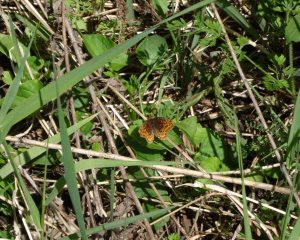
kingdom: Animalia
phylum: Arthropoda
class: Insecta
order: Lepidoptera
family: Nymphalidae
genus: Clossiana
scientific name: Clossiana toddi
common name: Meadow Fritillary
